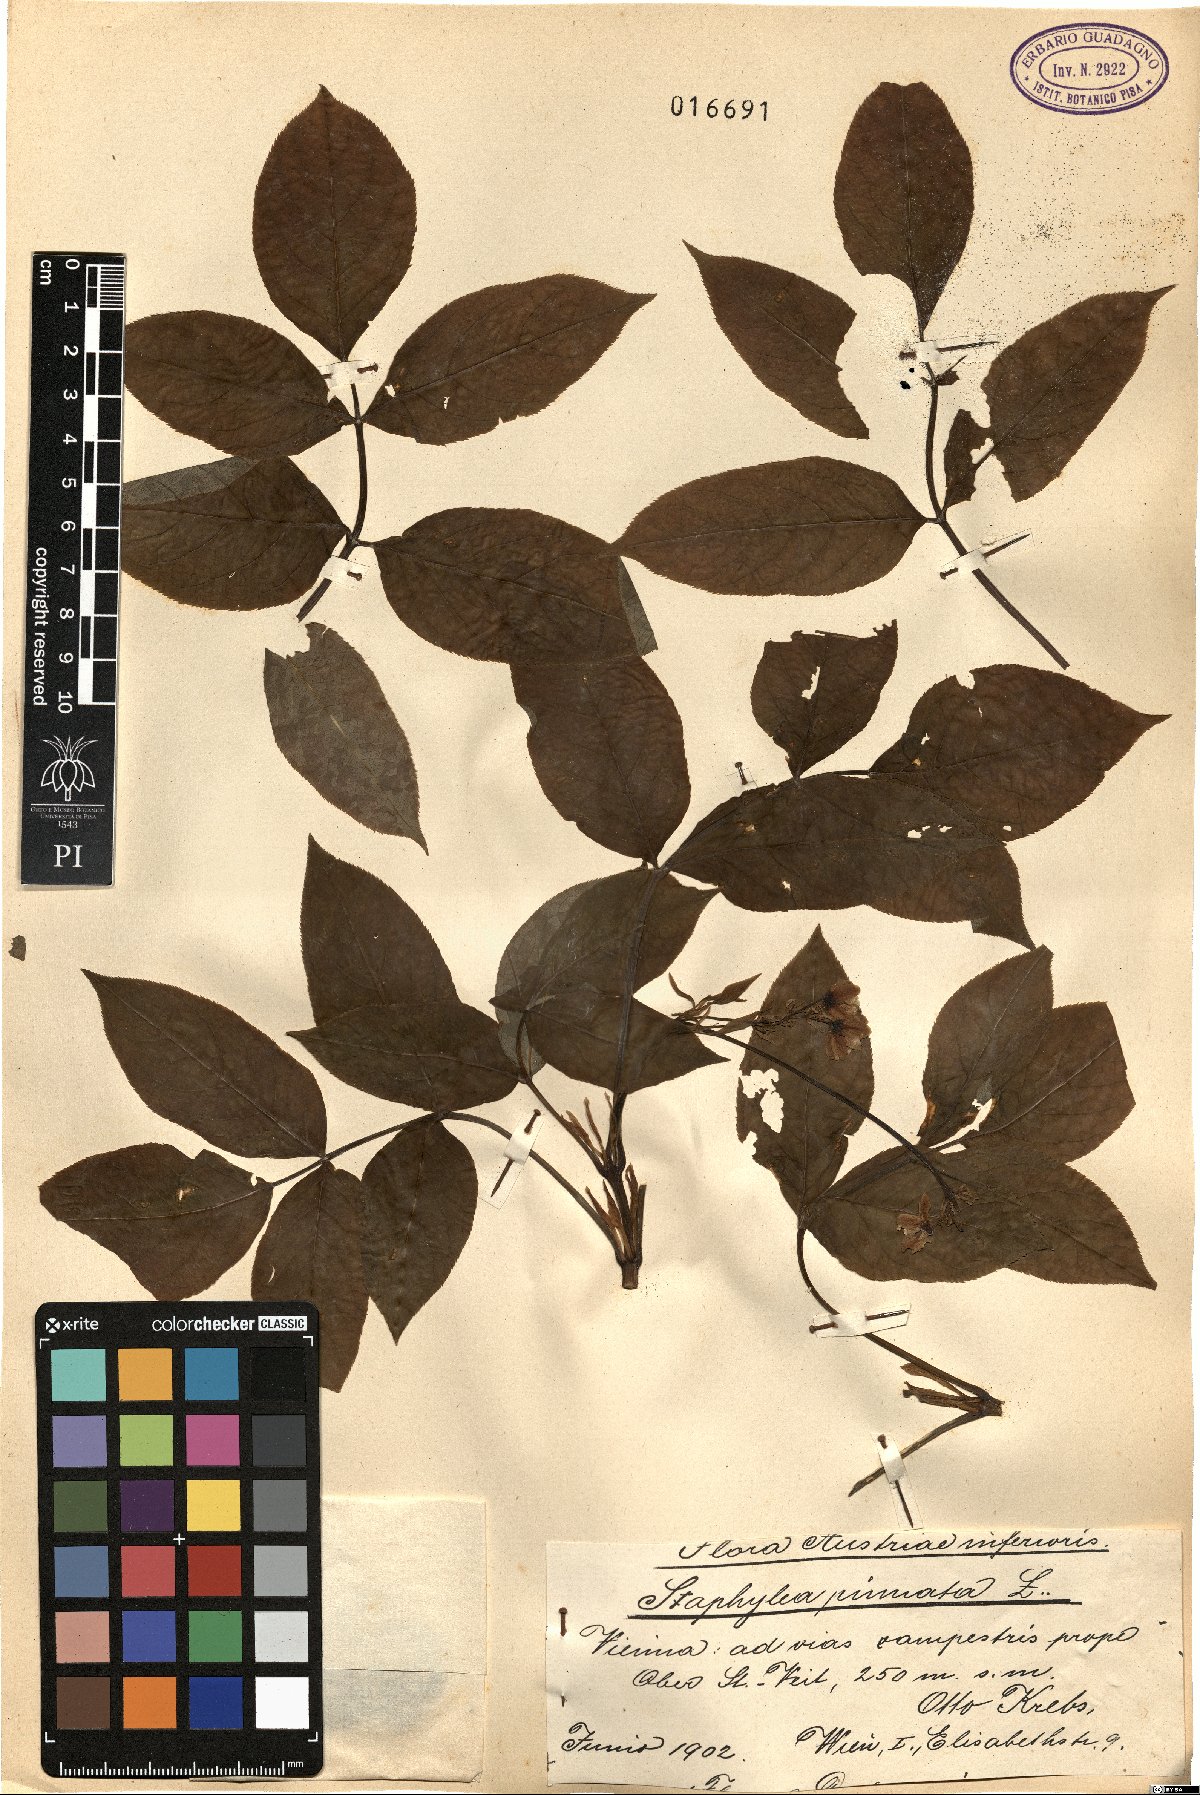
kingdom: Plantae
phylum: Tracheophyta
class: Magnoliopsida
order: Asterales
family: Asteraceae
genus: Scorzonera
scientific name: Scorzonera humilis
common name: Viper's-grass
